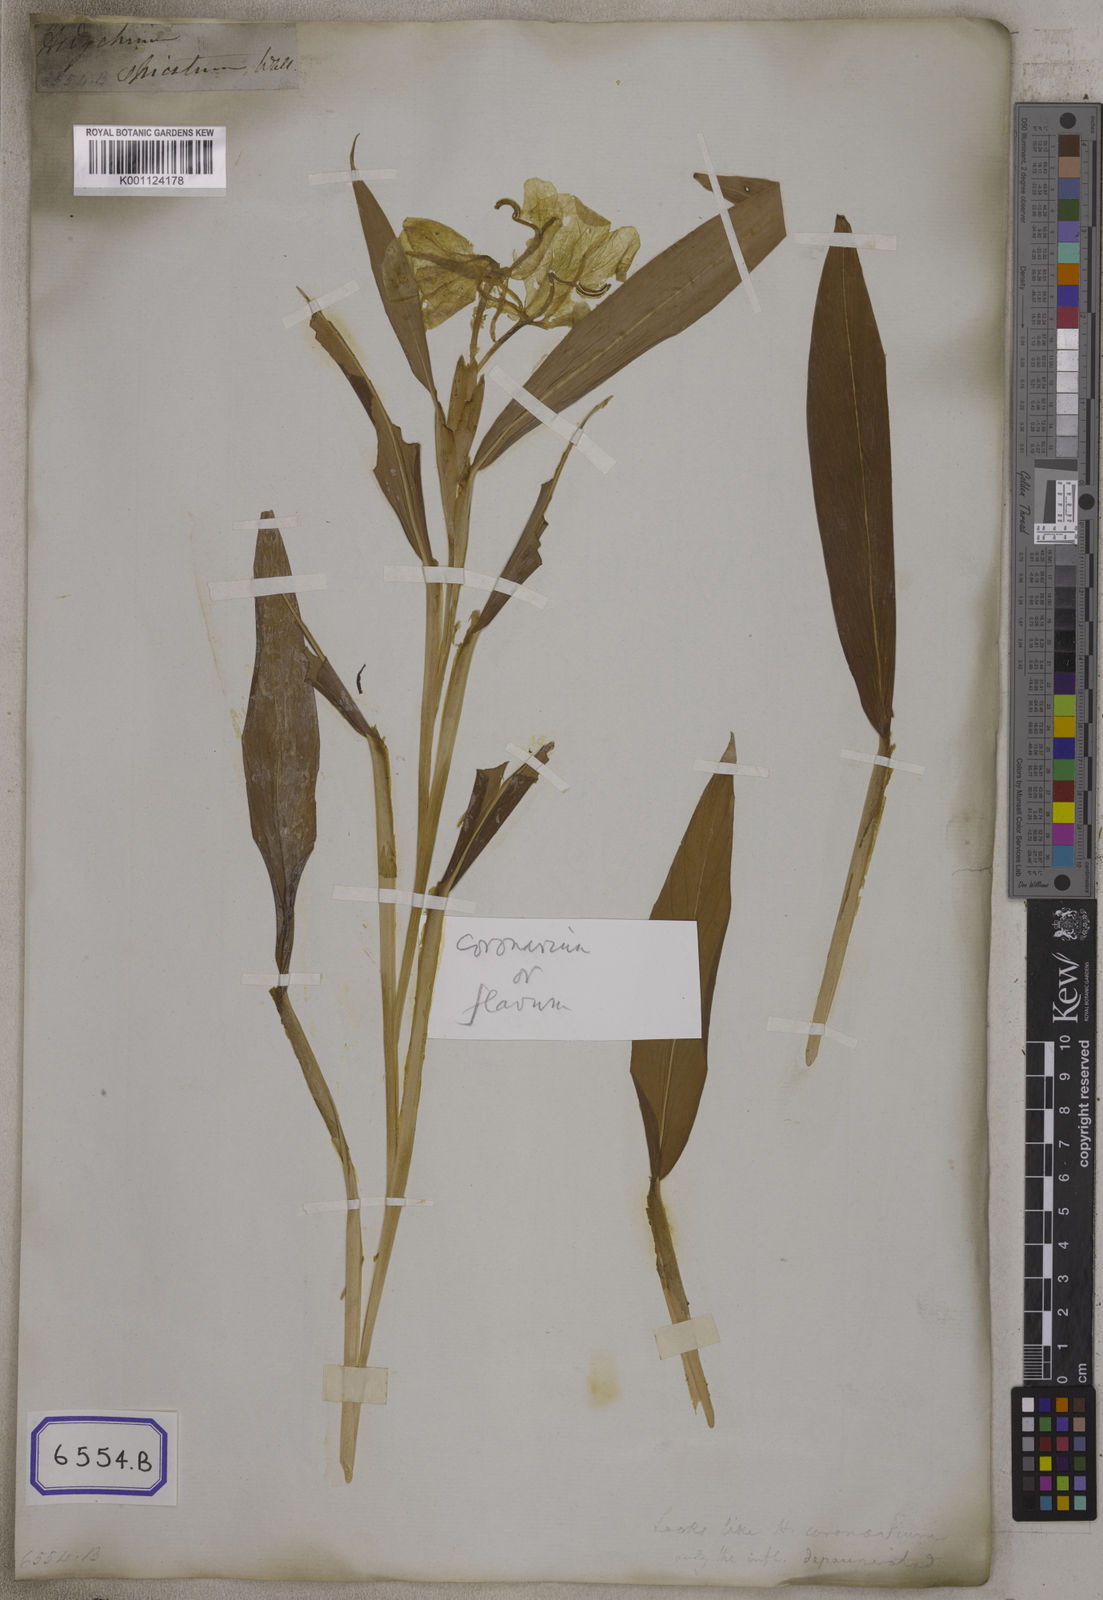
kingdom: Plantae
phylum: Tracheophyta
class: Liliopsida
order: Zingiberales
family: Zingiberaceae
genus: Hedychium
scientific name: Hedychium
